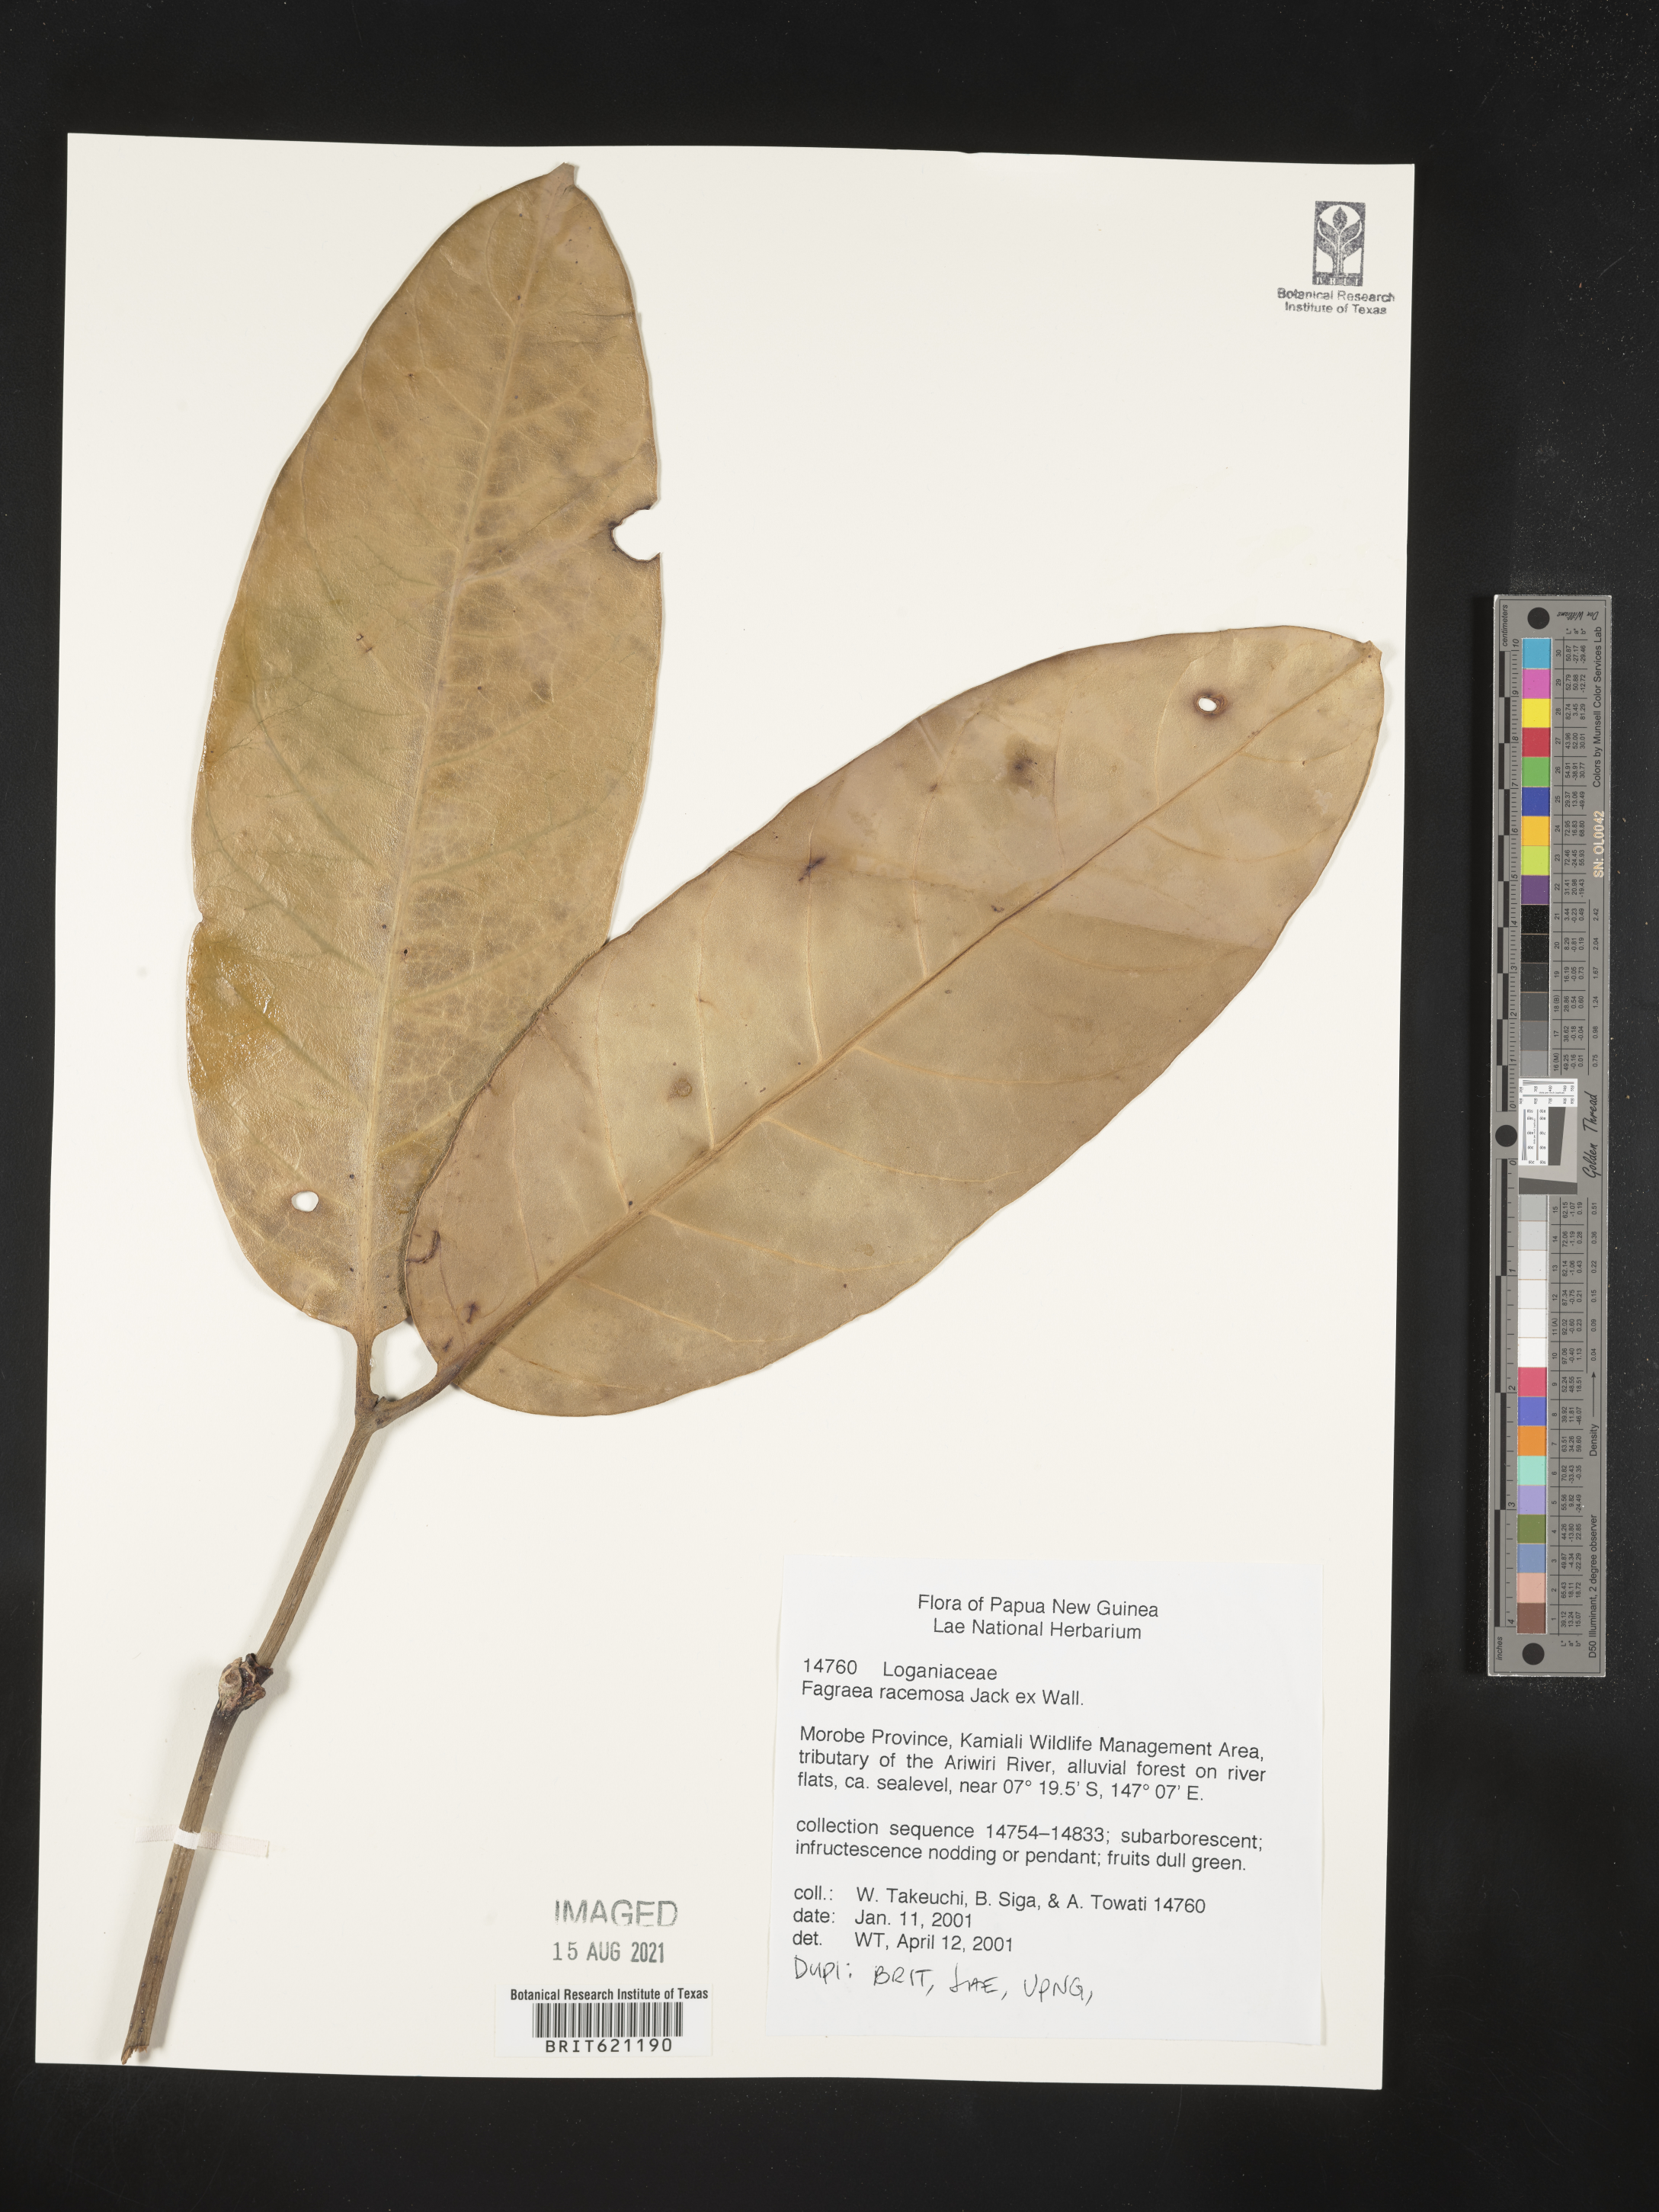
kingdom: Plantae
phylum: Tracheophyta
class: Magnoliopsida
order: Gentianales
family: Gentianaceae
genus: Utania
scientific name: Utania racemosa
